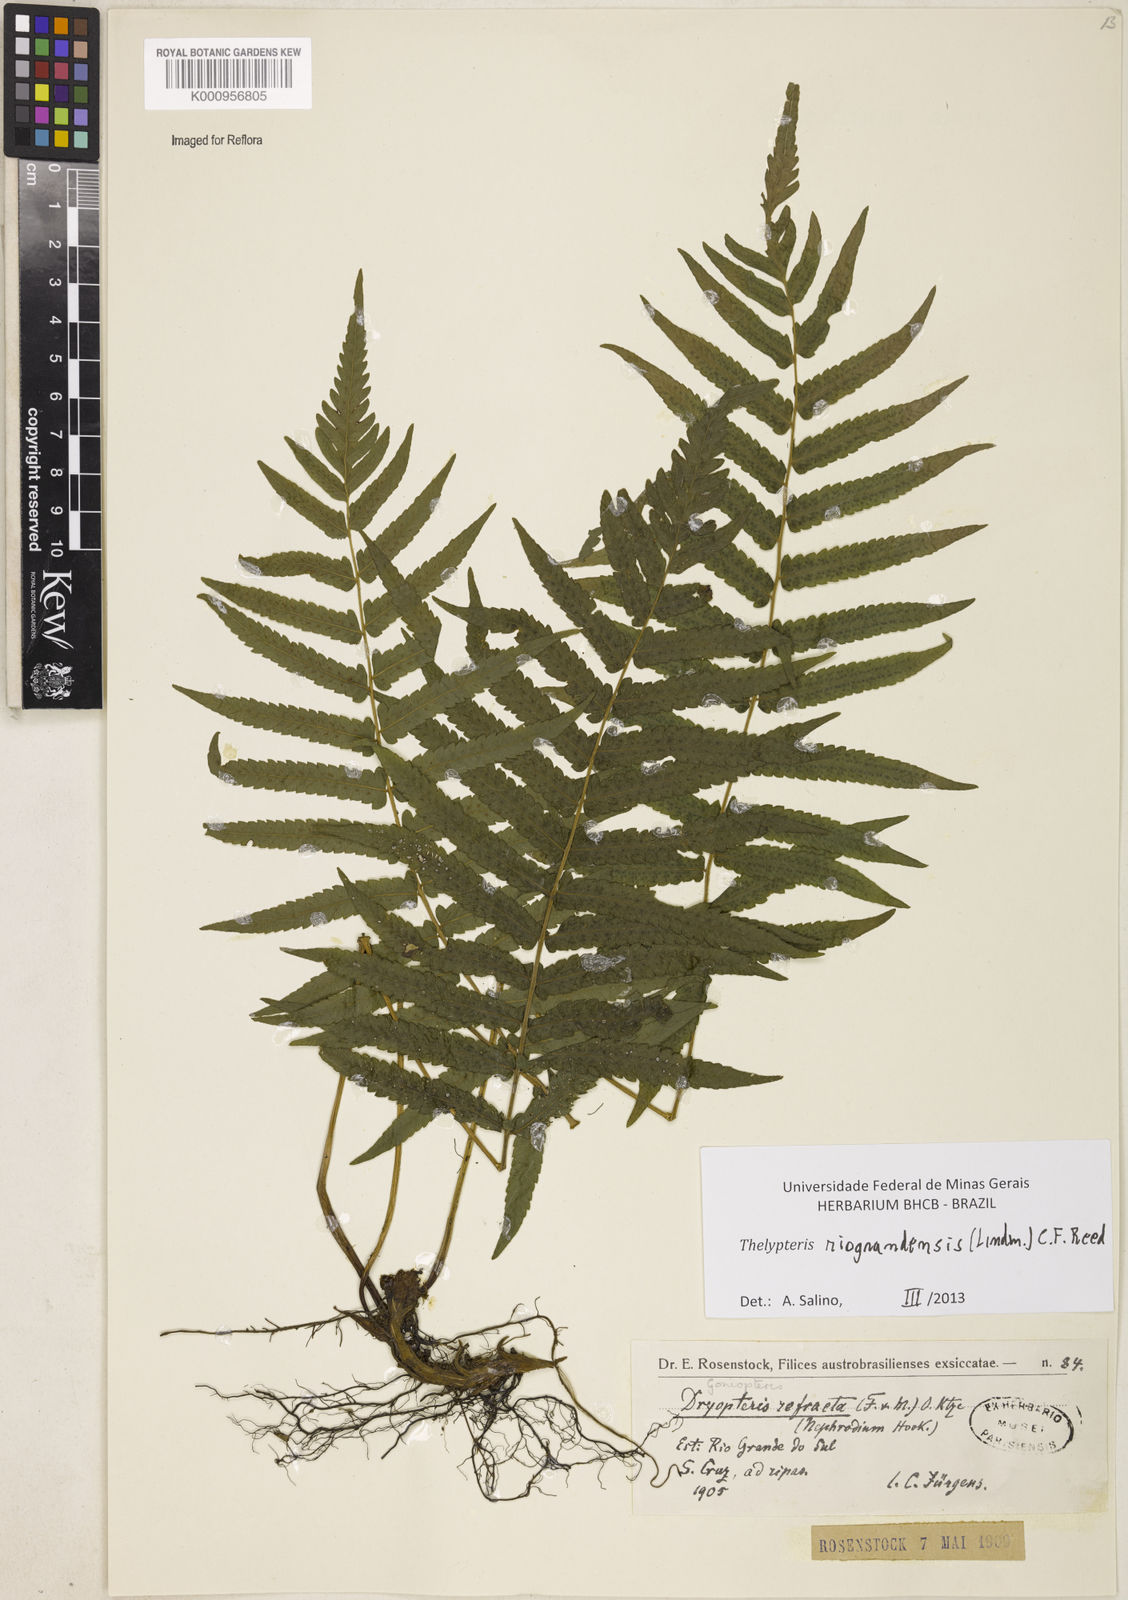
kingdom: Plantae
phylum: Tracheophyta
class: Polypodiopsida
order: Polypodiales
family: Thelypteridaceae
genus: Goniopteris
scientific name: Goniopteris
